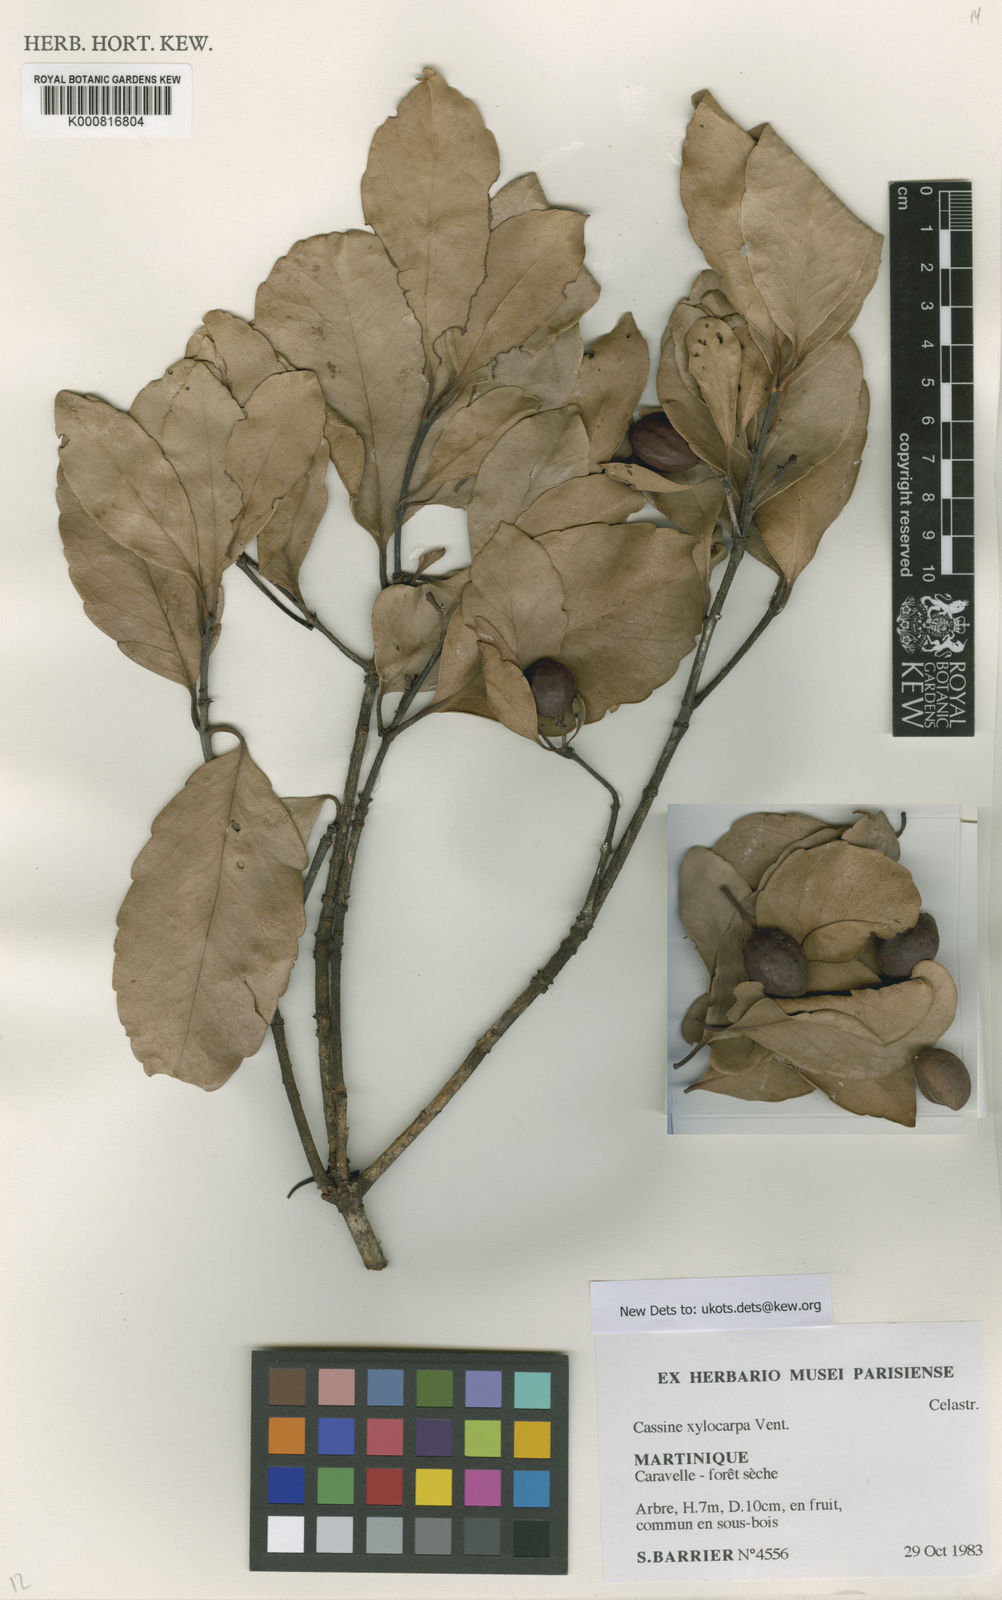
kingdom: Plantae
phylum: Tracheophyta
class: Magnoliopsida
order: Celastrales
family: Celastraceae
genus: Elaeodendron
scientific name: Elaeodendron xylocarpum
